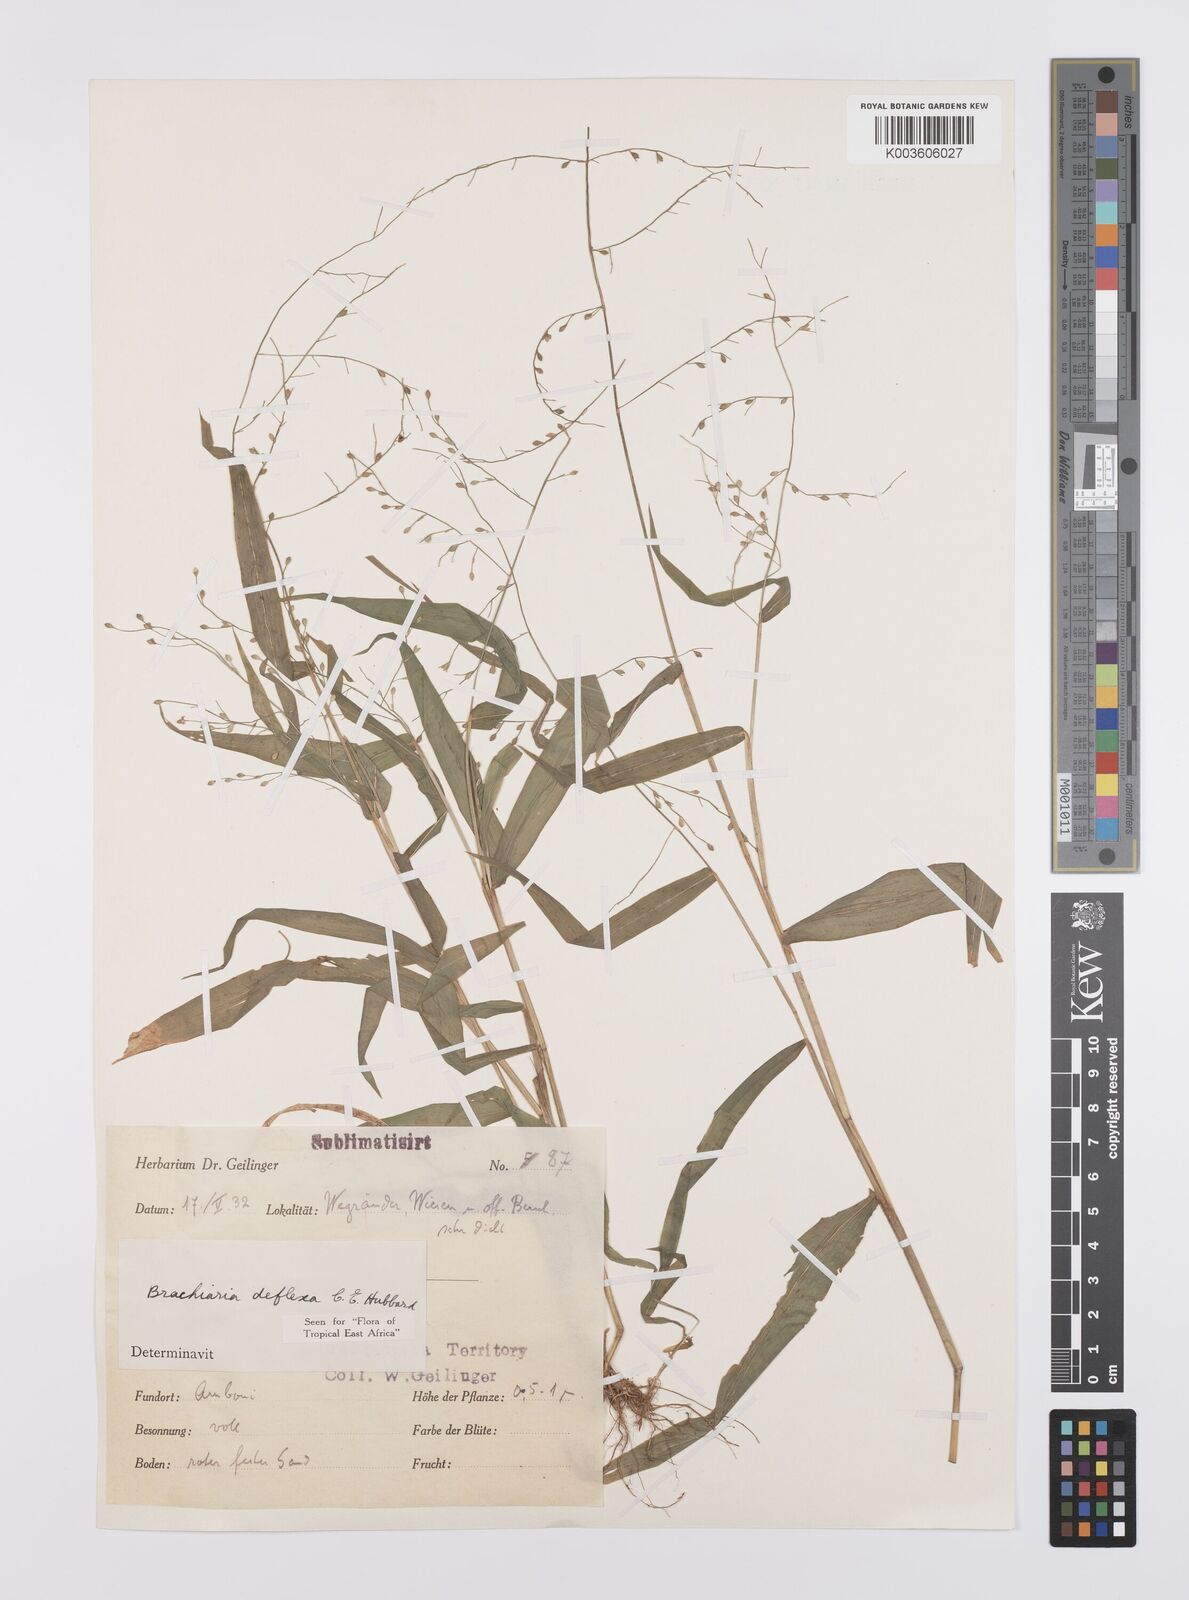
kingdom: Plantae
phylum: Tracheophyta
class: Liliopsida
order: Poales
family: Poaceae
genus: Urochloa
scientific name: Urochloa deflexa
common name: Guinea millet
